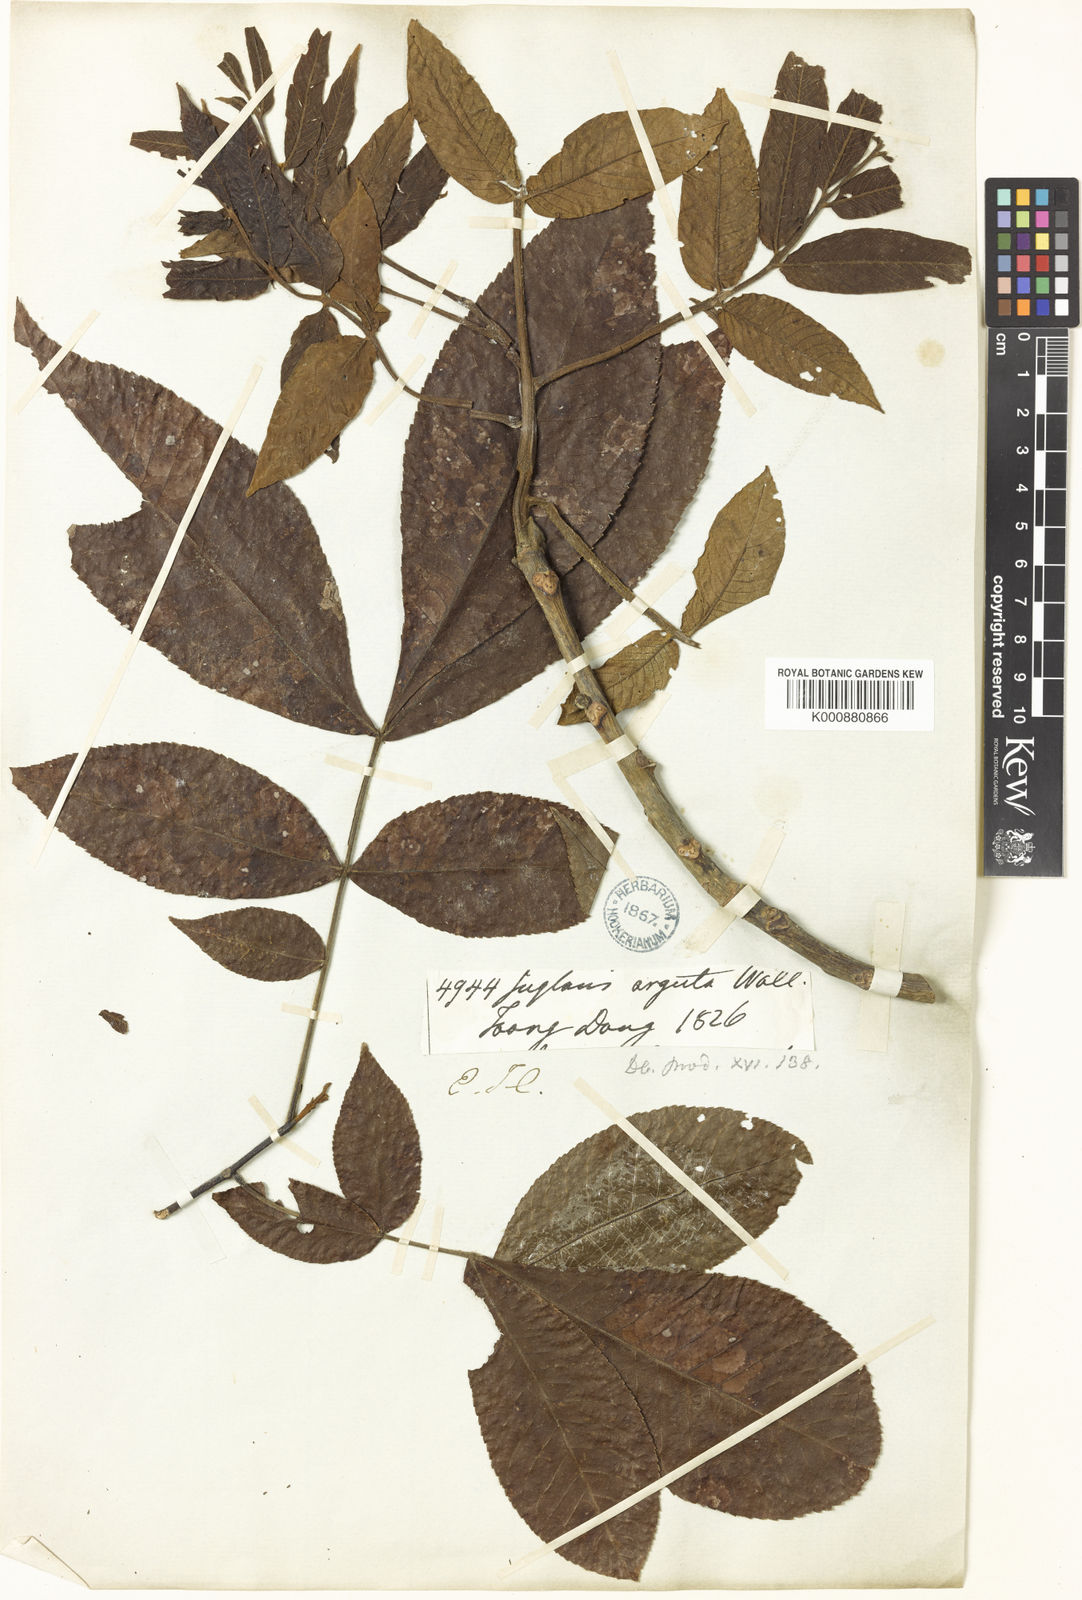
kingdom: Plantae
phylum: Tracheophyta
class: Magnoliopsida
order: Fagales
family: Juglandaceae
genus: Juglans
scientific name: Juglans regia
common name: Walnut
